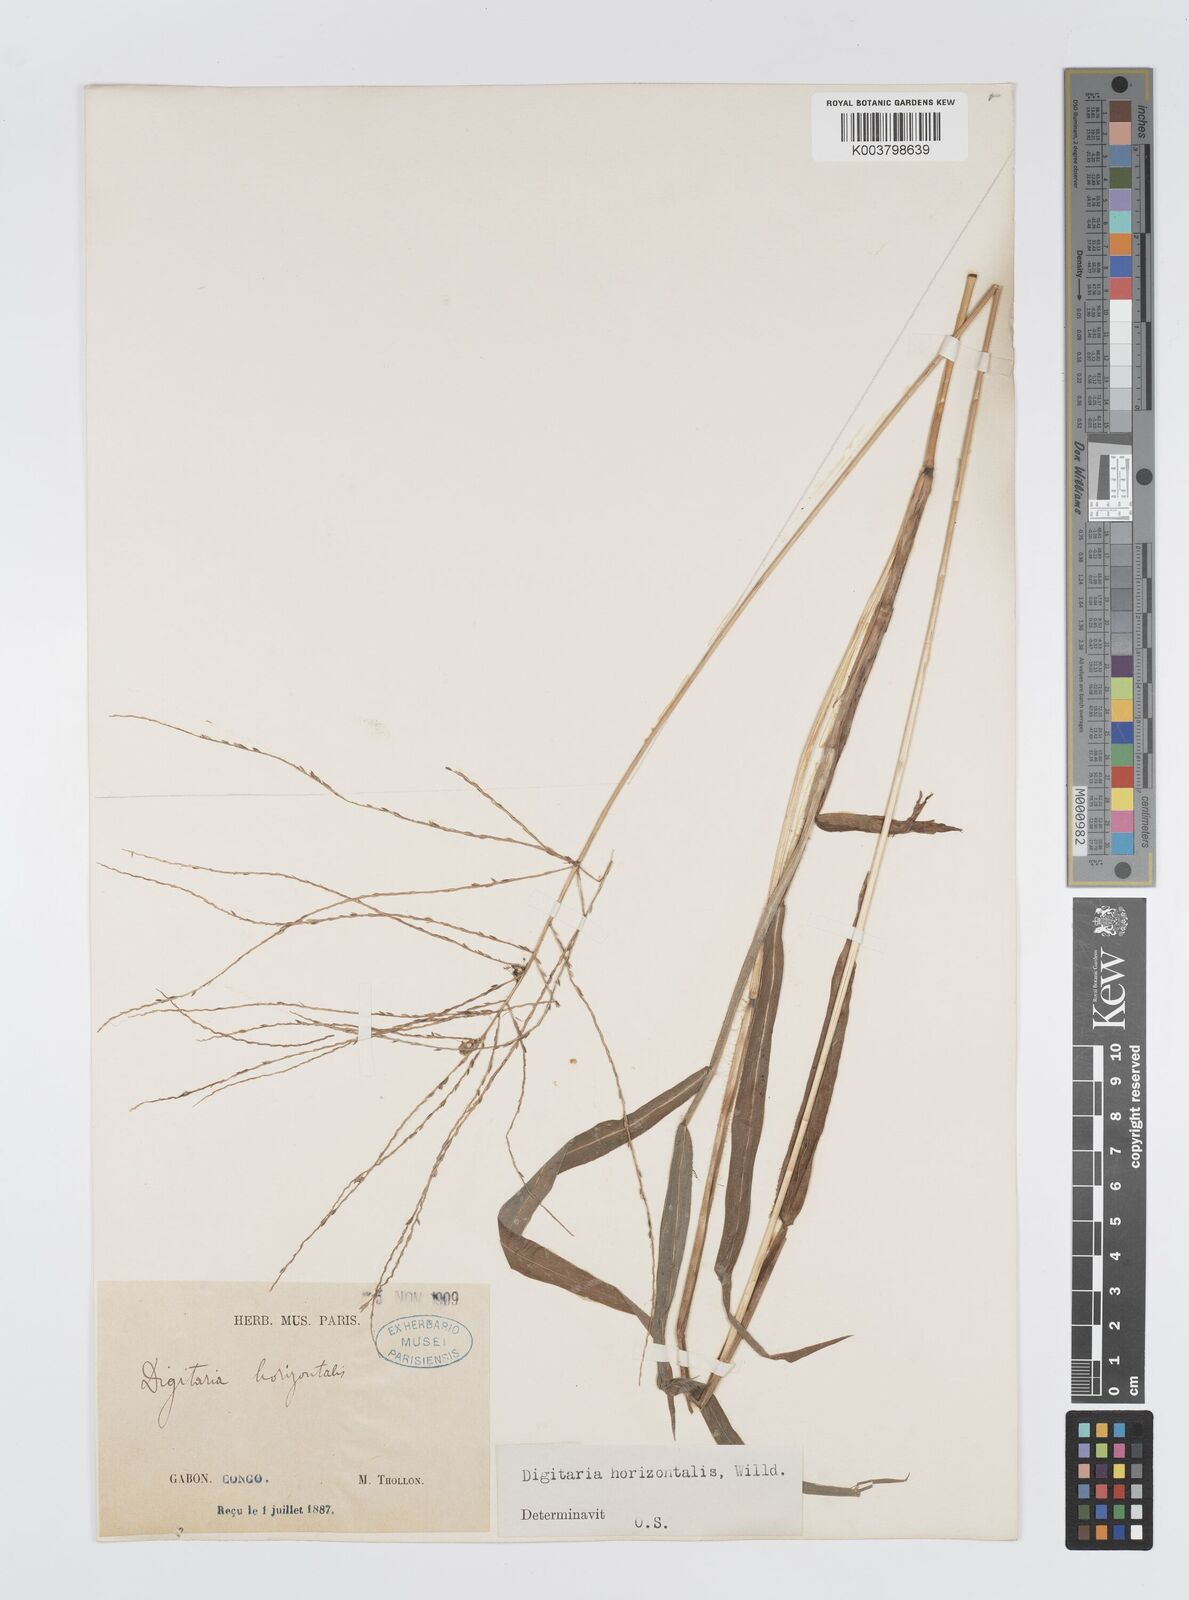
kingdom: Plantae
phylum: Tracheophyta
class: Liliopsida
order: Poales
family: Poaceae
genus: Digitaria
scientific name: Digitaria horizontalis
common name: Jamaican crabgrass
